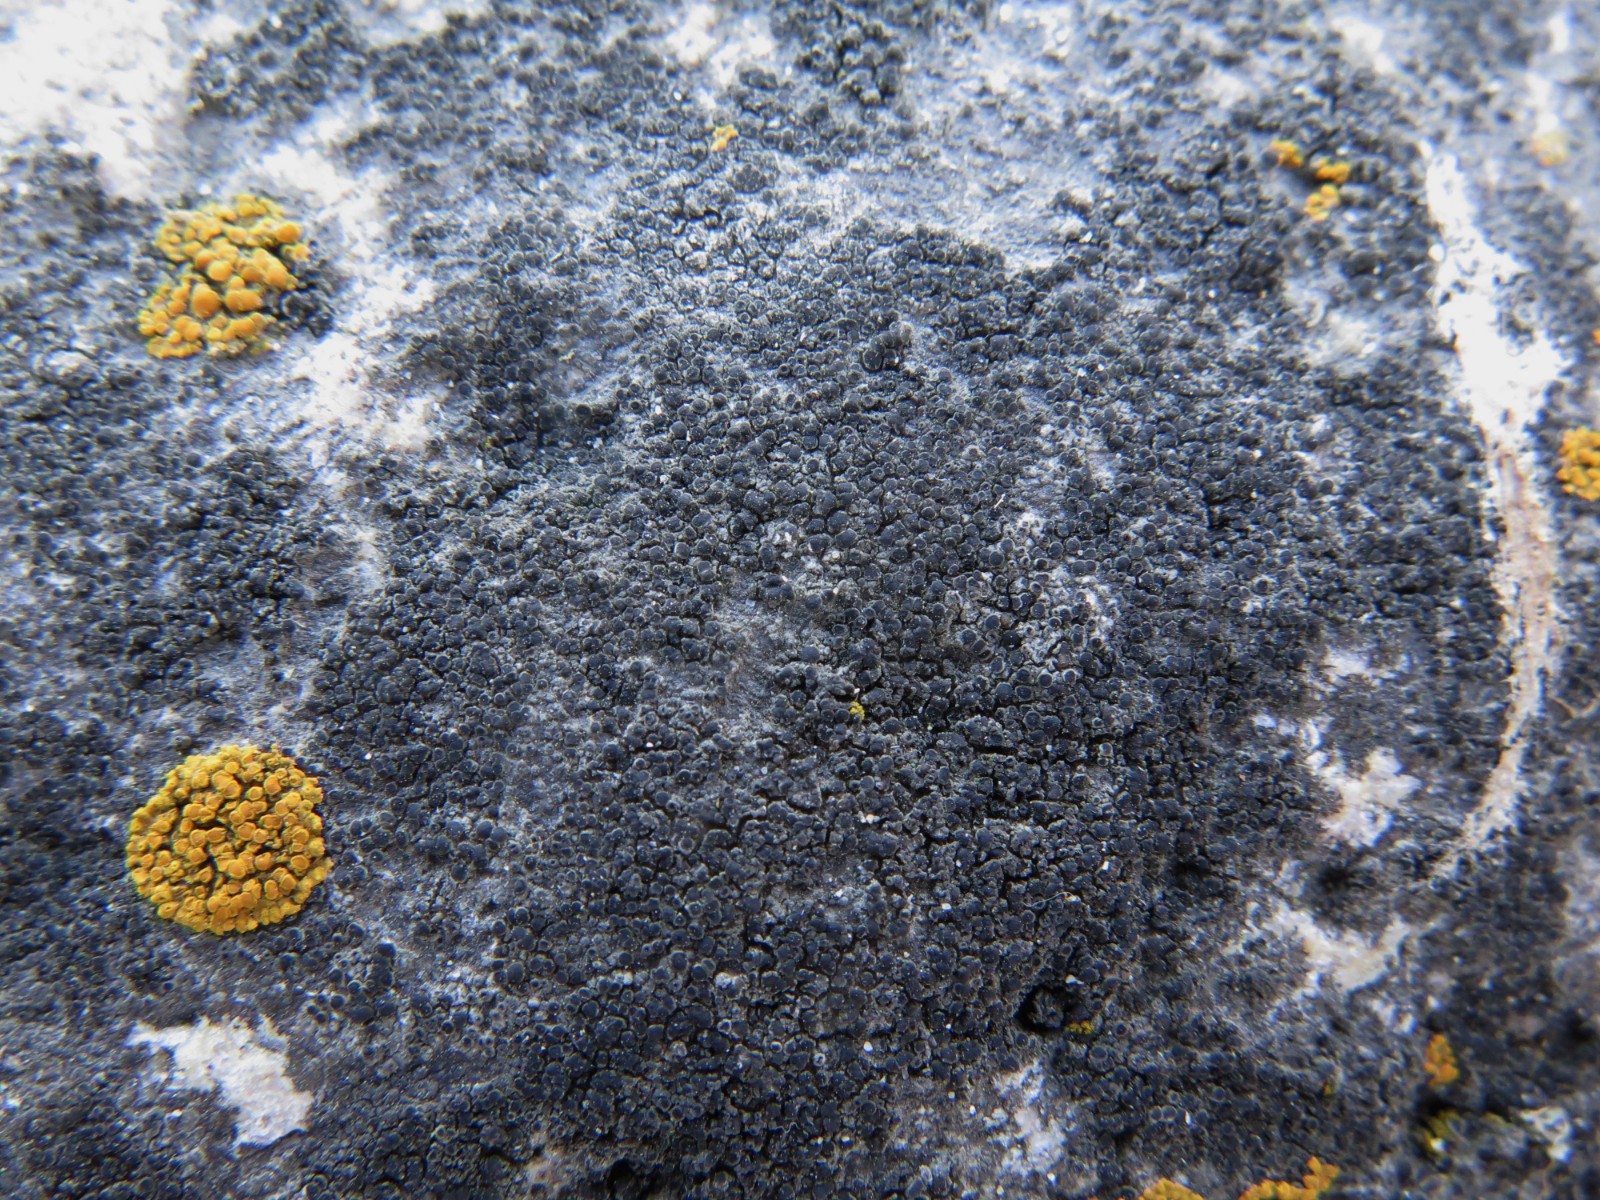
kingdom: Fungi
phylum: Ascomycota
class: Lecanoromycetes
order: Caliciales
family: Physciaceae
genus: Rinodina
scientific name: Rinodina oleae
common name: kyst-knaplav
